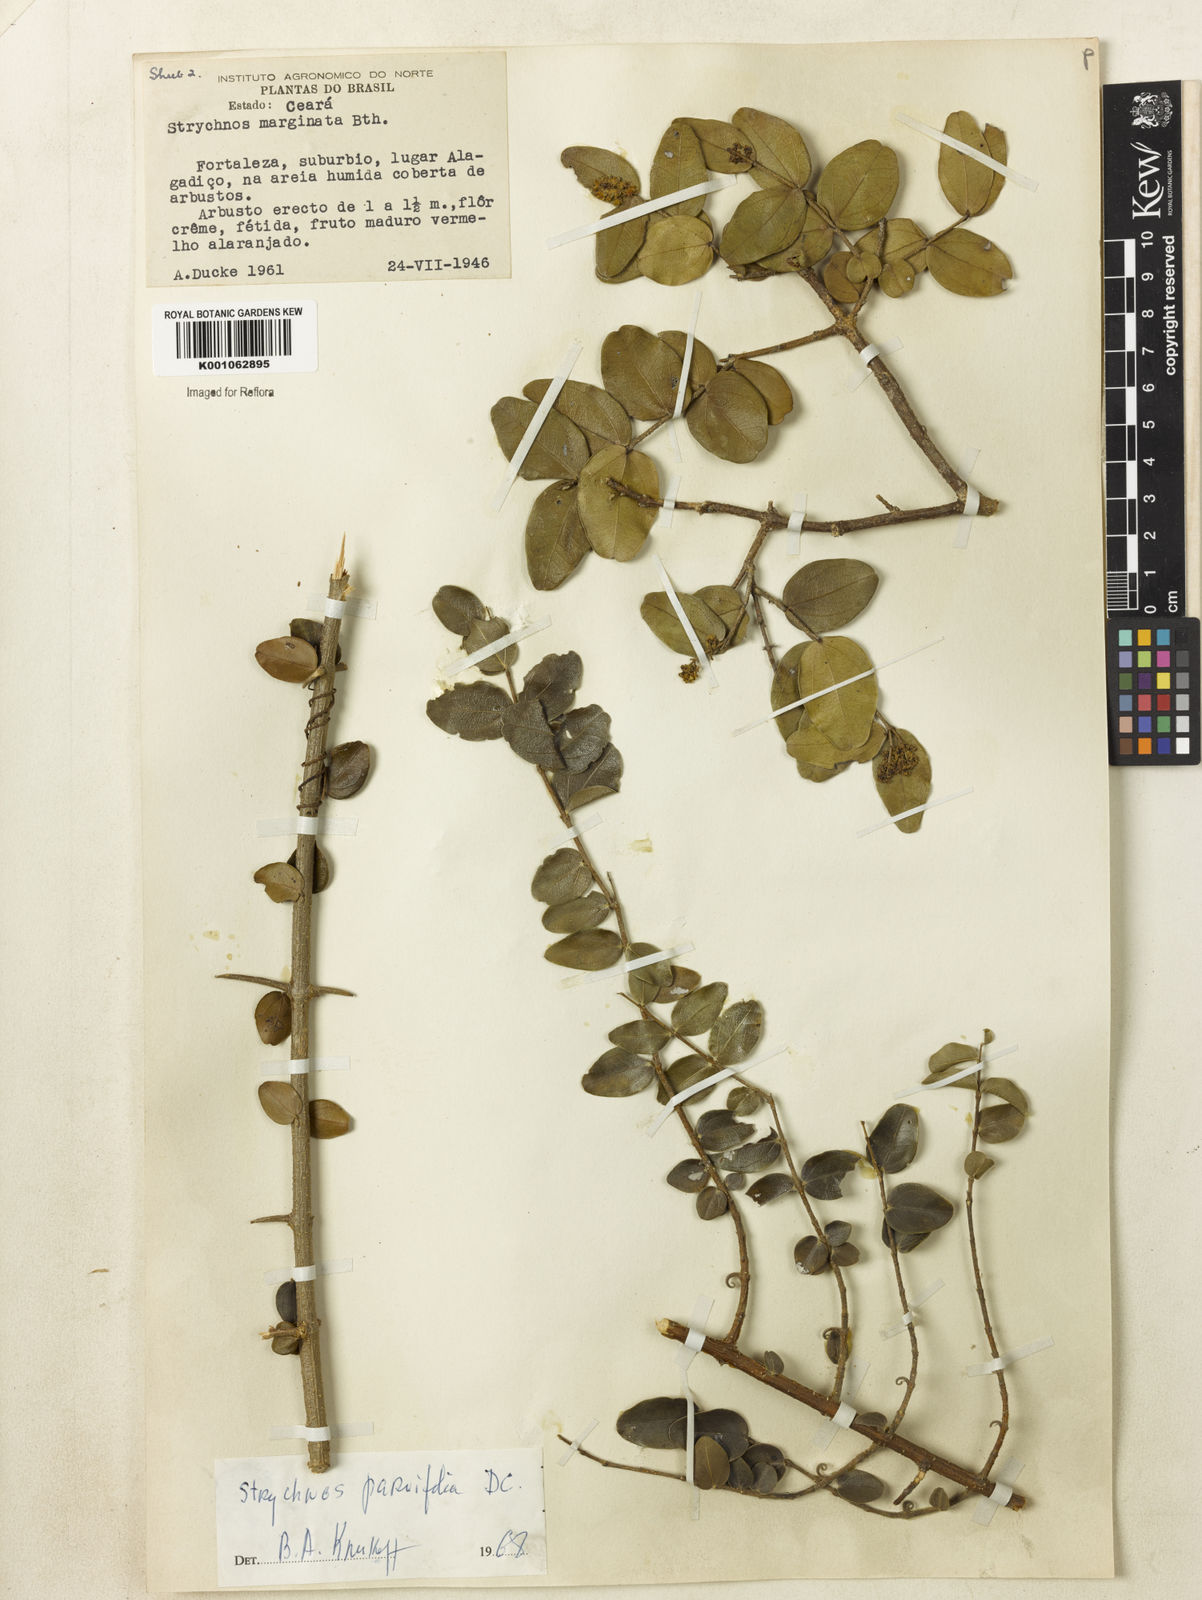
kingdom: Plantae
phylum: Tracheophyta
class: Magnoliopsida
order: Gentianales
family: Loganiaceae
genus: Strychnos
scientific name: Strychnos parvifolia
